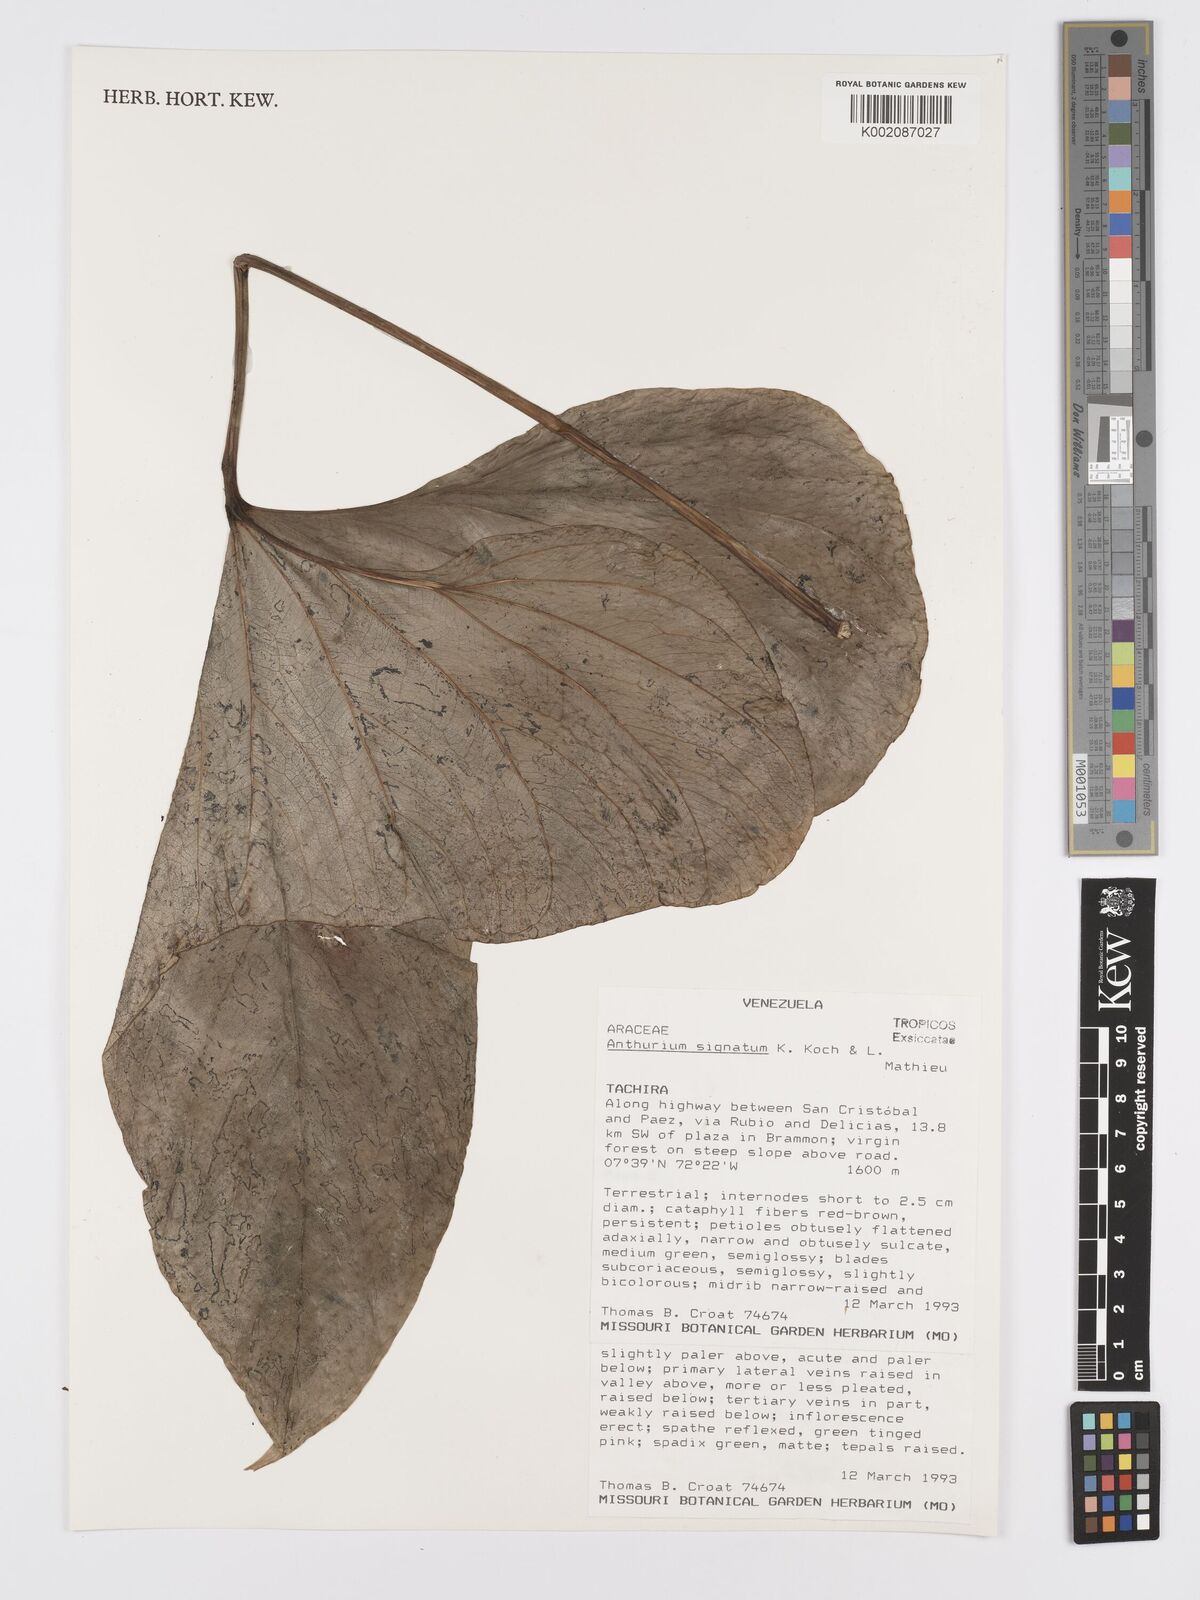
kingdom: Plantae
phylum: Tracheophyta
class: Liliopsida
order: Alismatales
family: Araceae
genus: Anthurium
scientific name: Anthurium signatum
